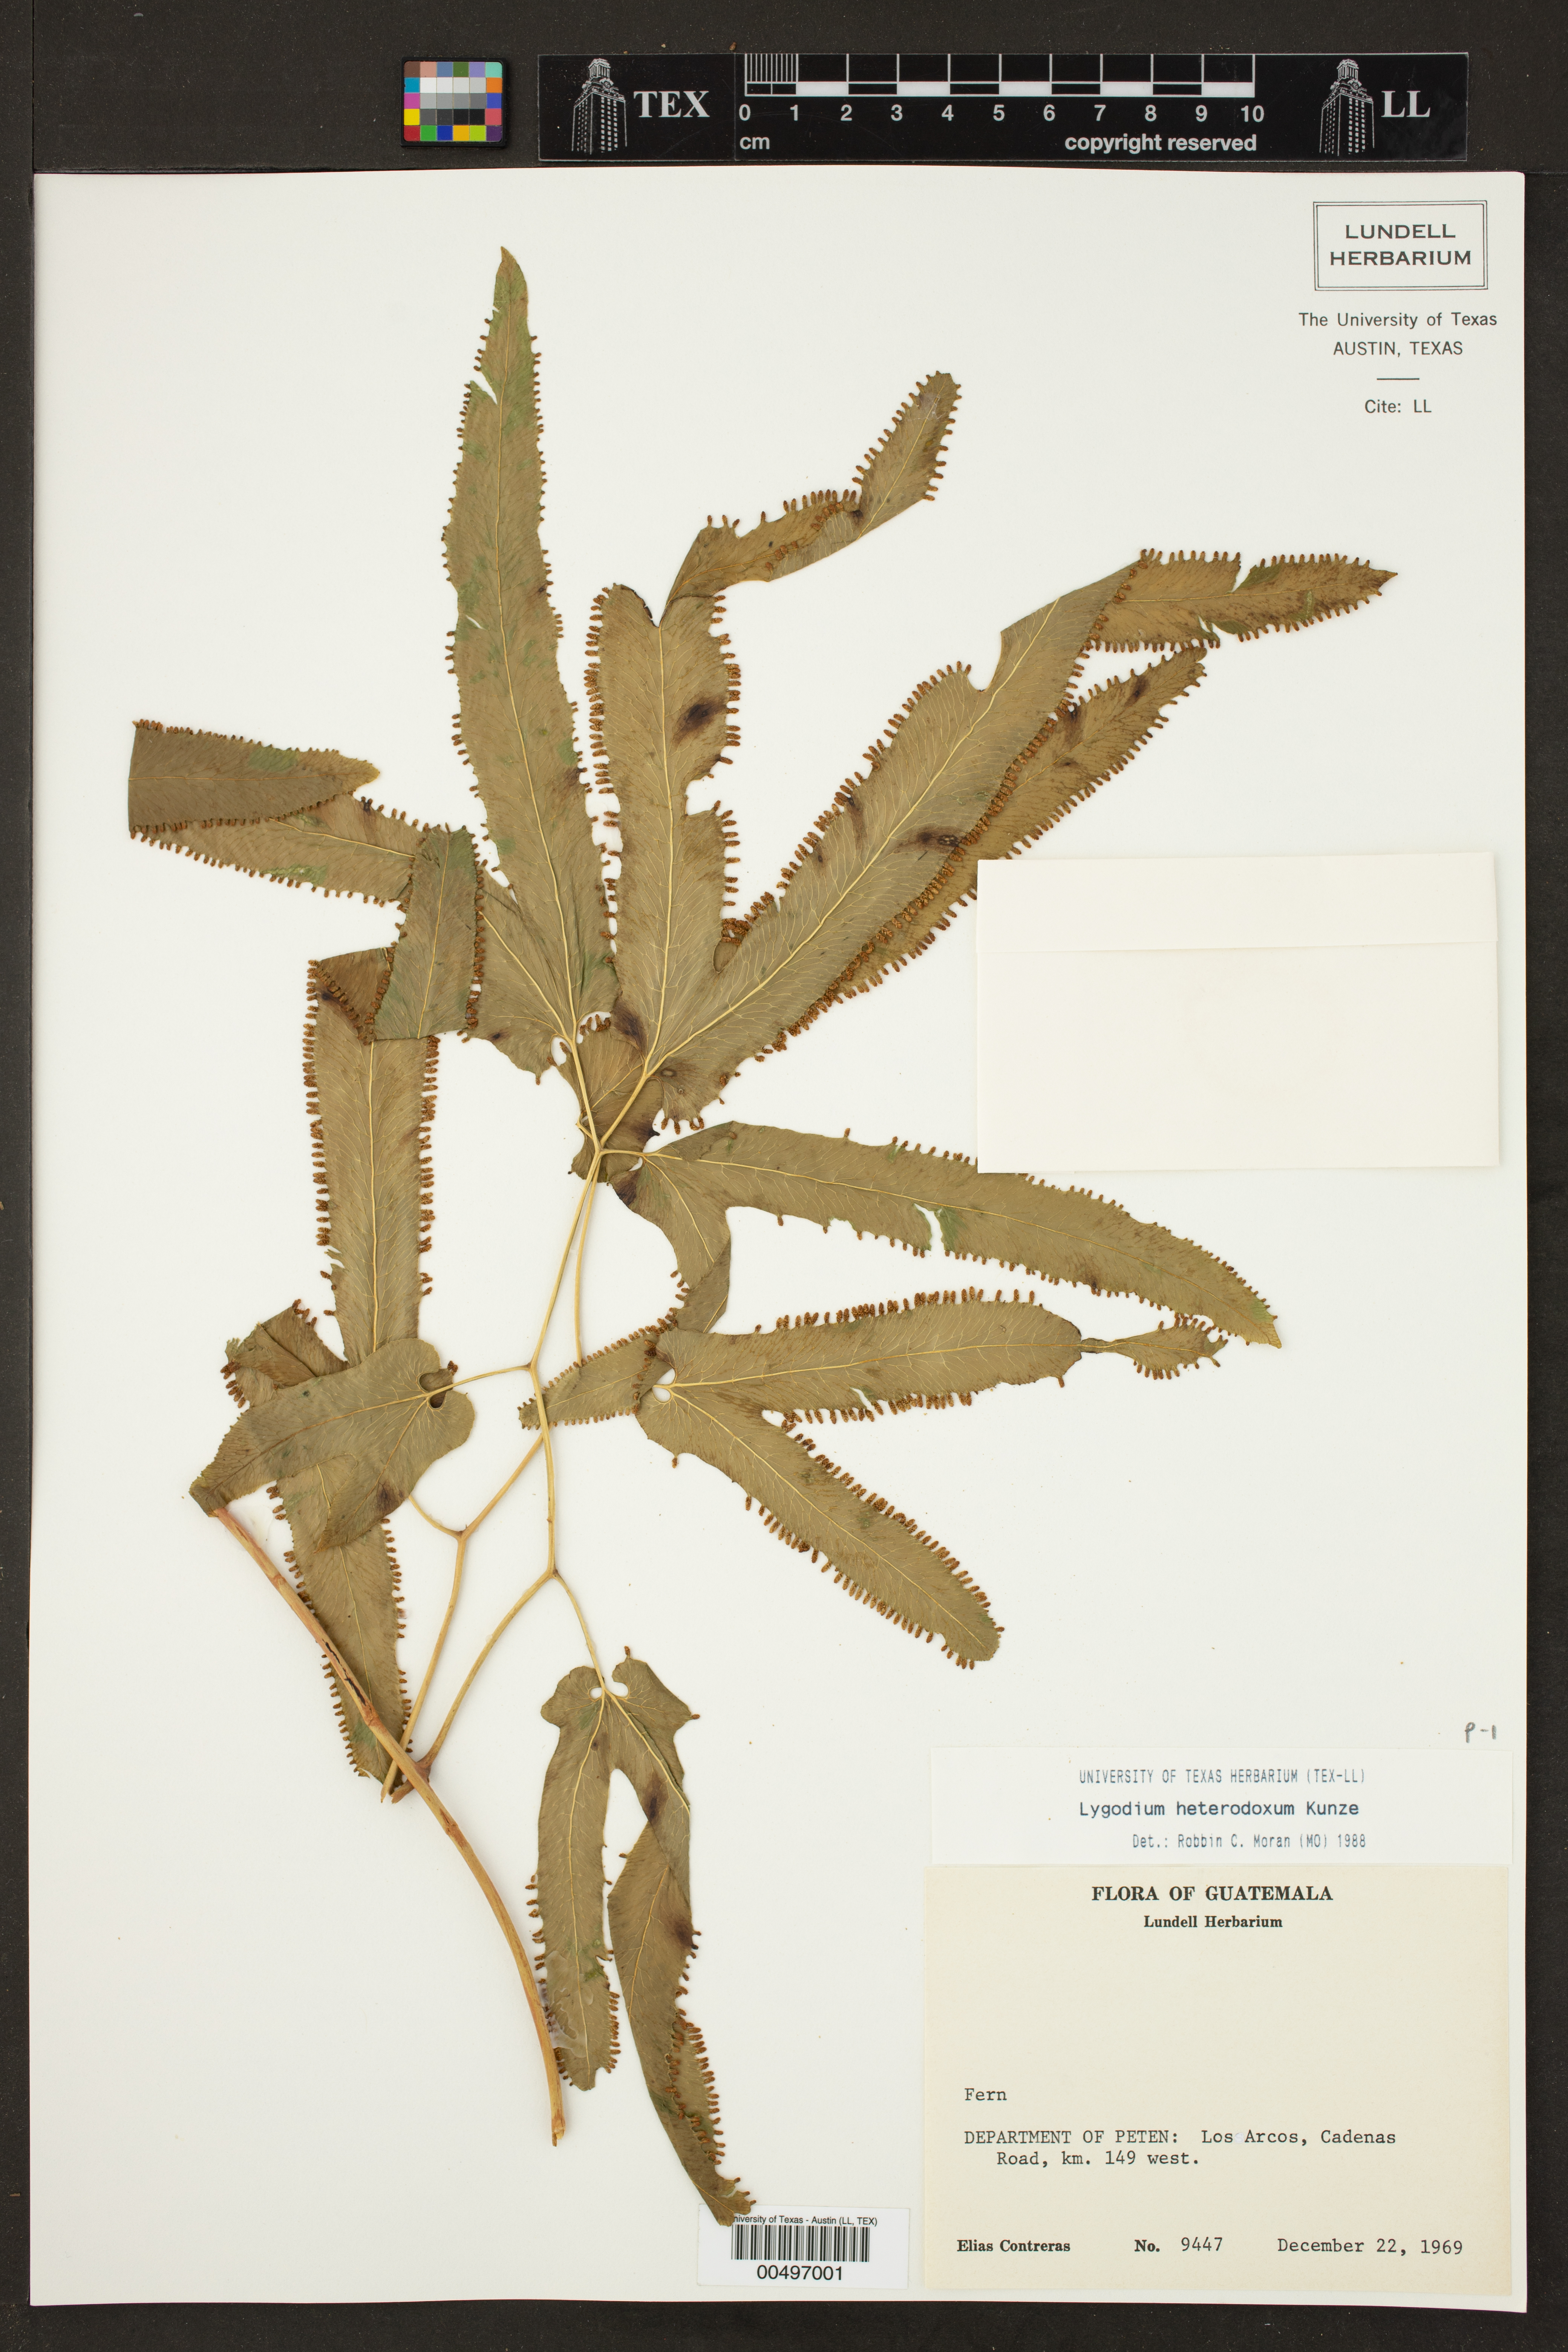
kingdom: Plantae
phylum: Tracheophyta
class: Polypodiopsida
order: Schizaeales
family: Lygodiaceae
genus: Lygodium
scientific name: Lygodium heterodoxum
